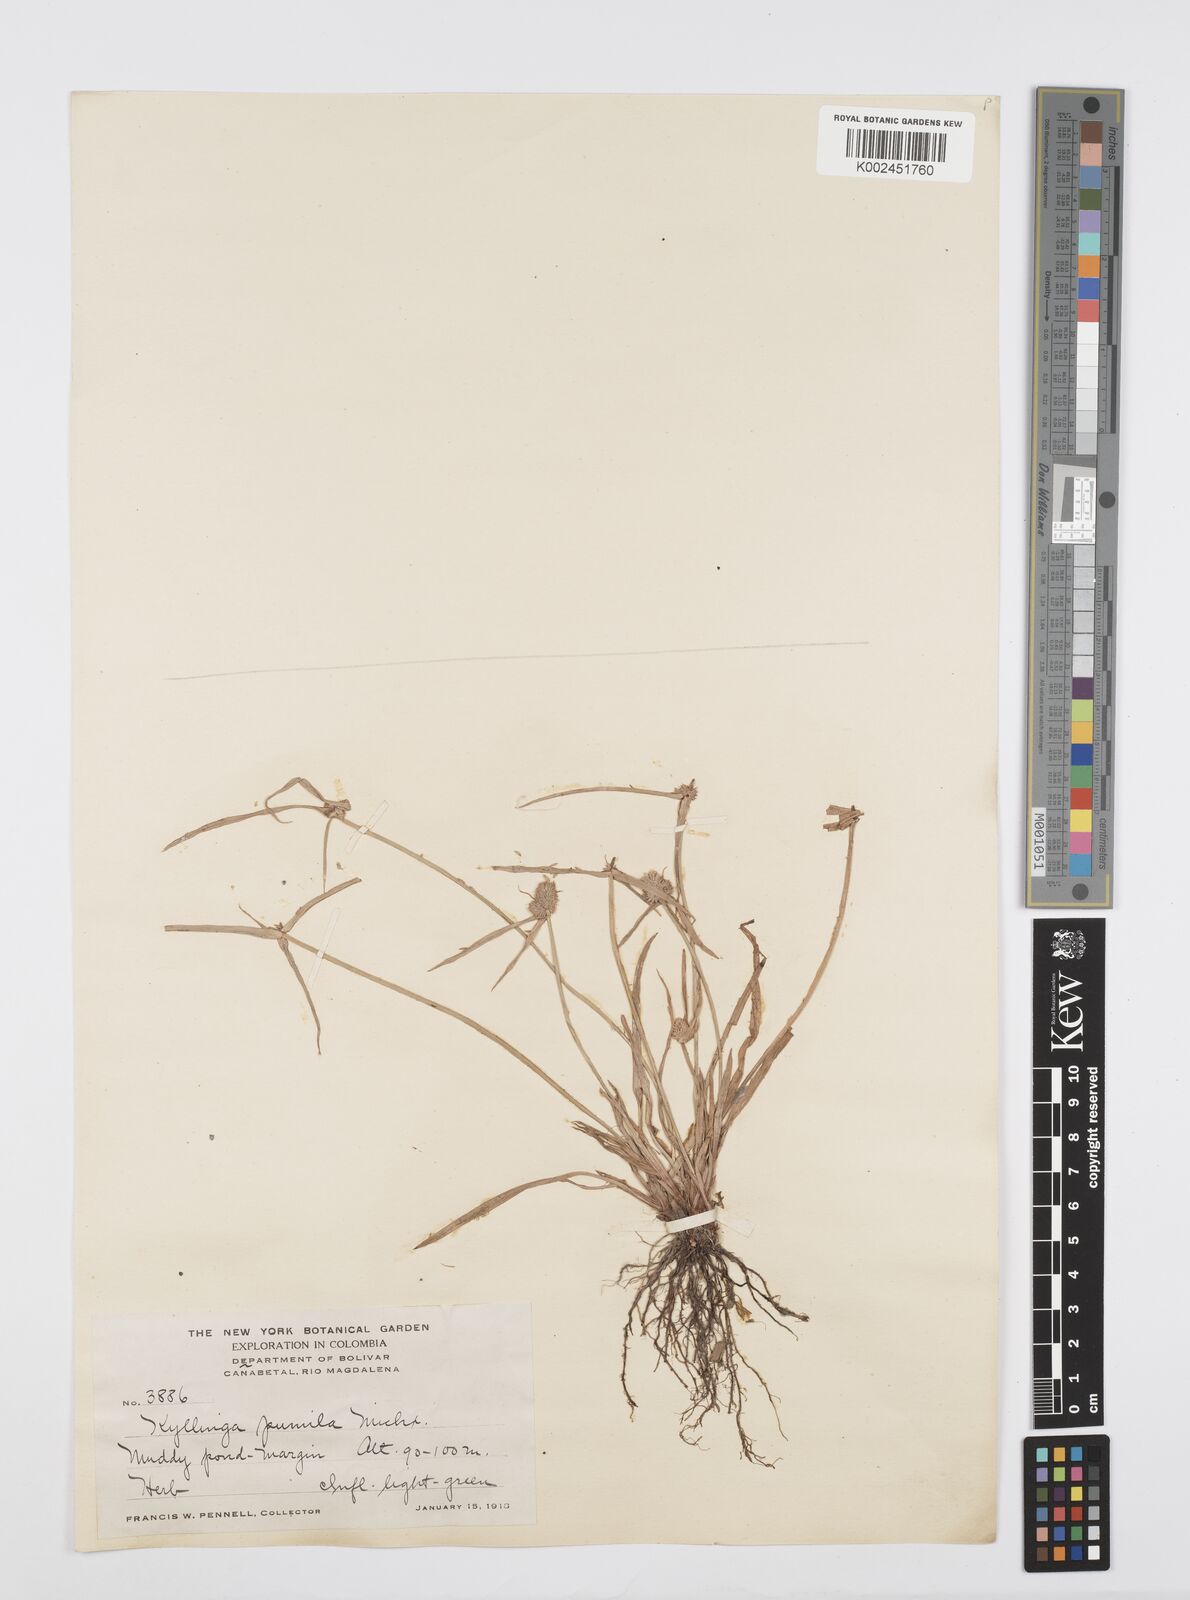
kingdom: Plantae
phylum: Tracheophyta
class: Liliopsida
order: Poales
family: Cyperaceae
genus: Cyperus
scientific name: Cyperus
